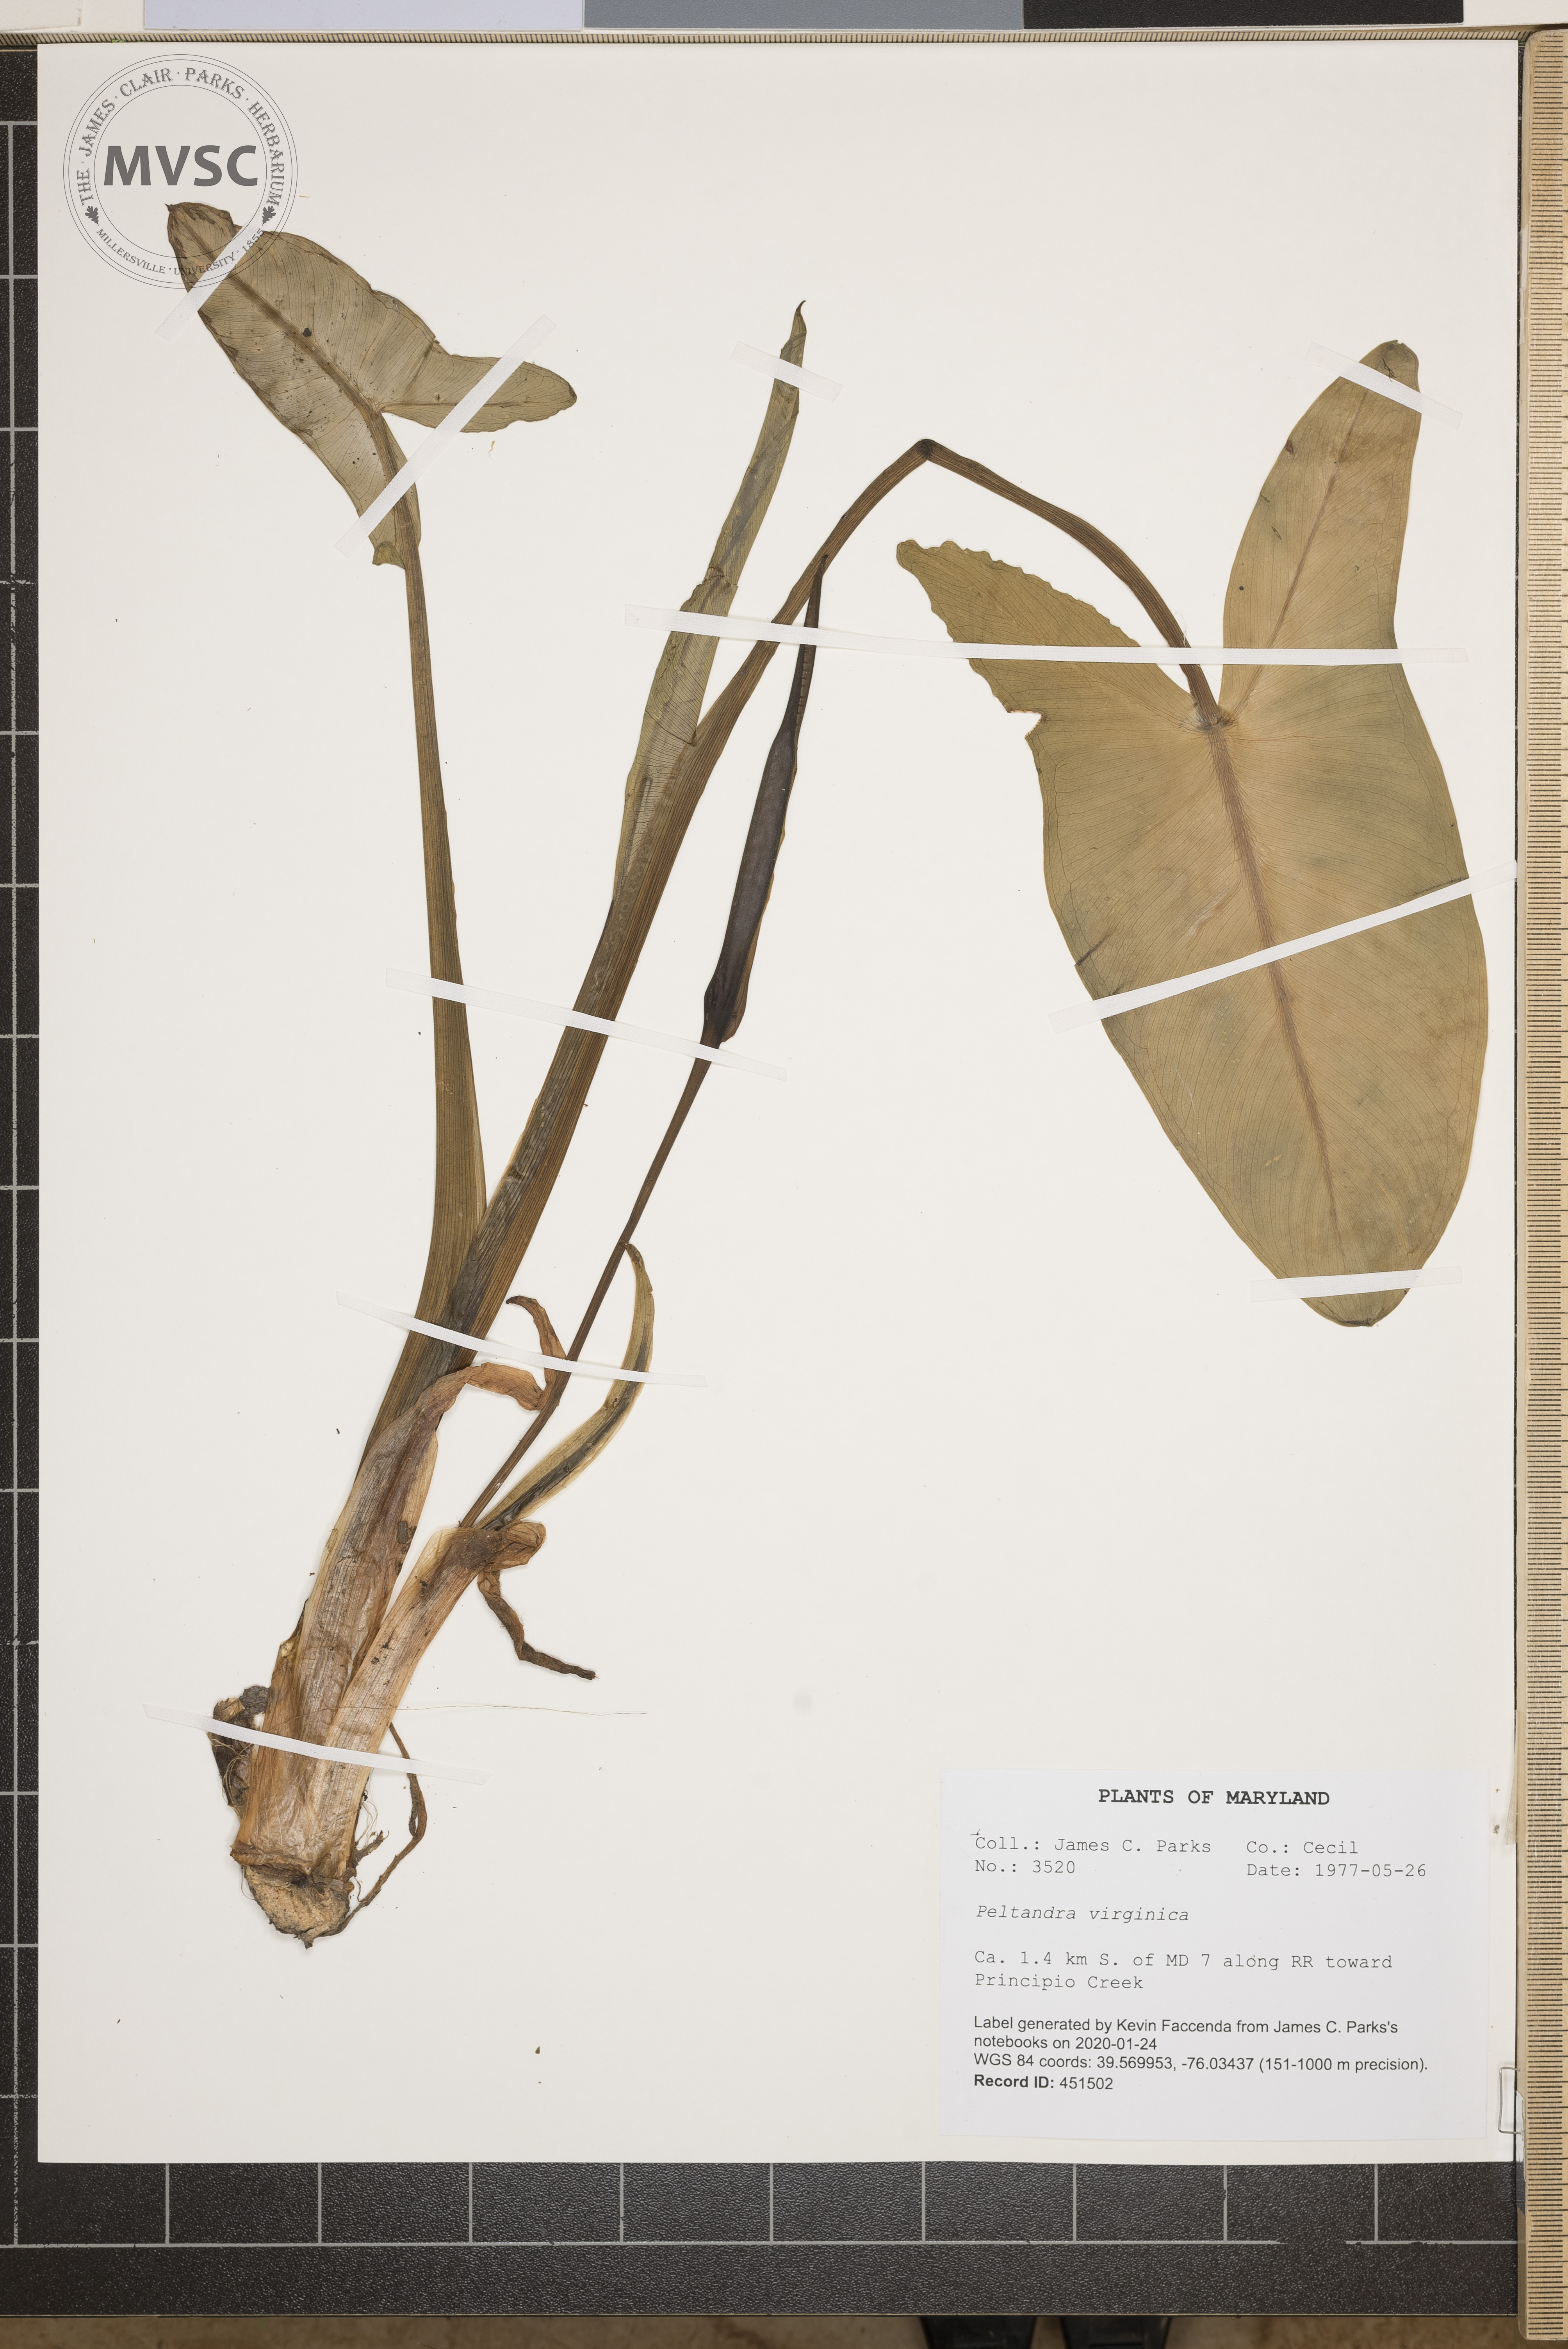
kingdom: Plantae
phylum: Tracheophyta
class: Liliopsida
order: Alismatales
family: Araceae
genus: Peltandra
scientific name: Peltandra virginica
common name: Arrow arum
